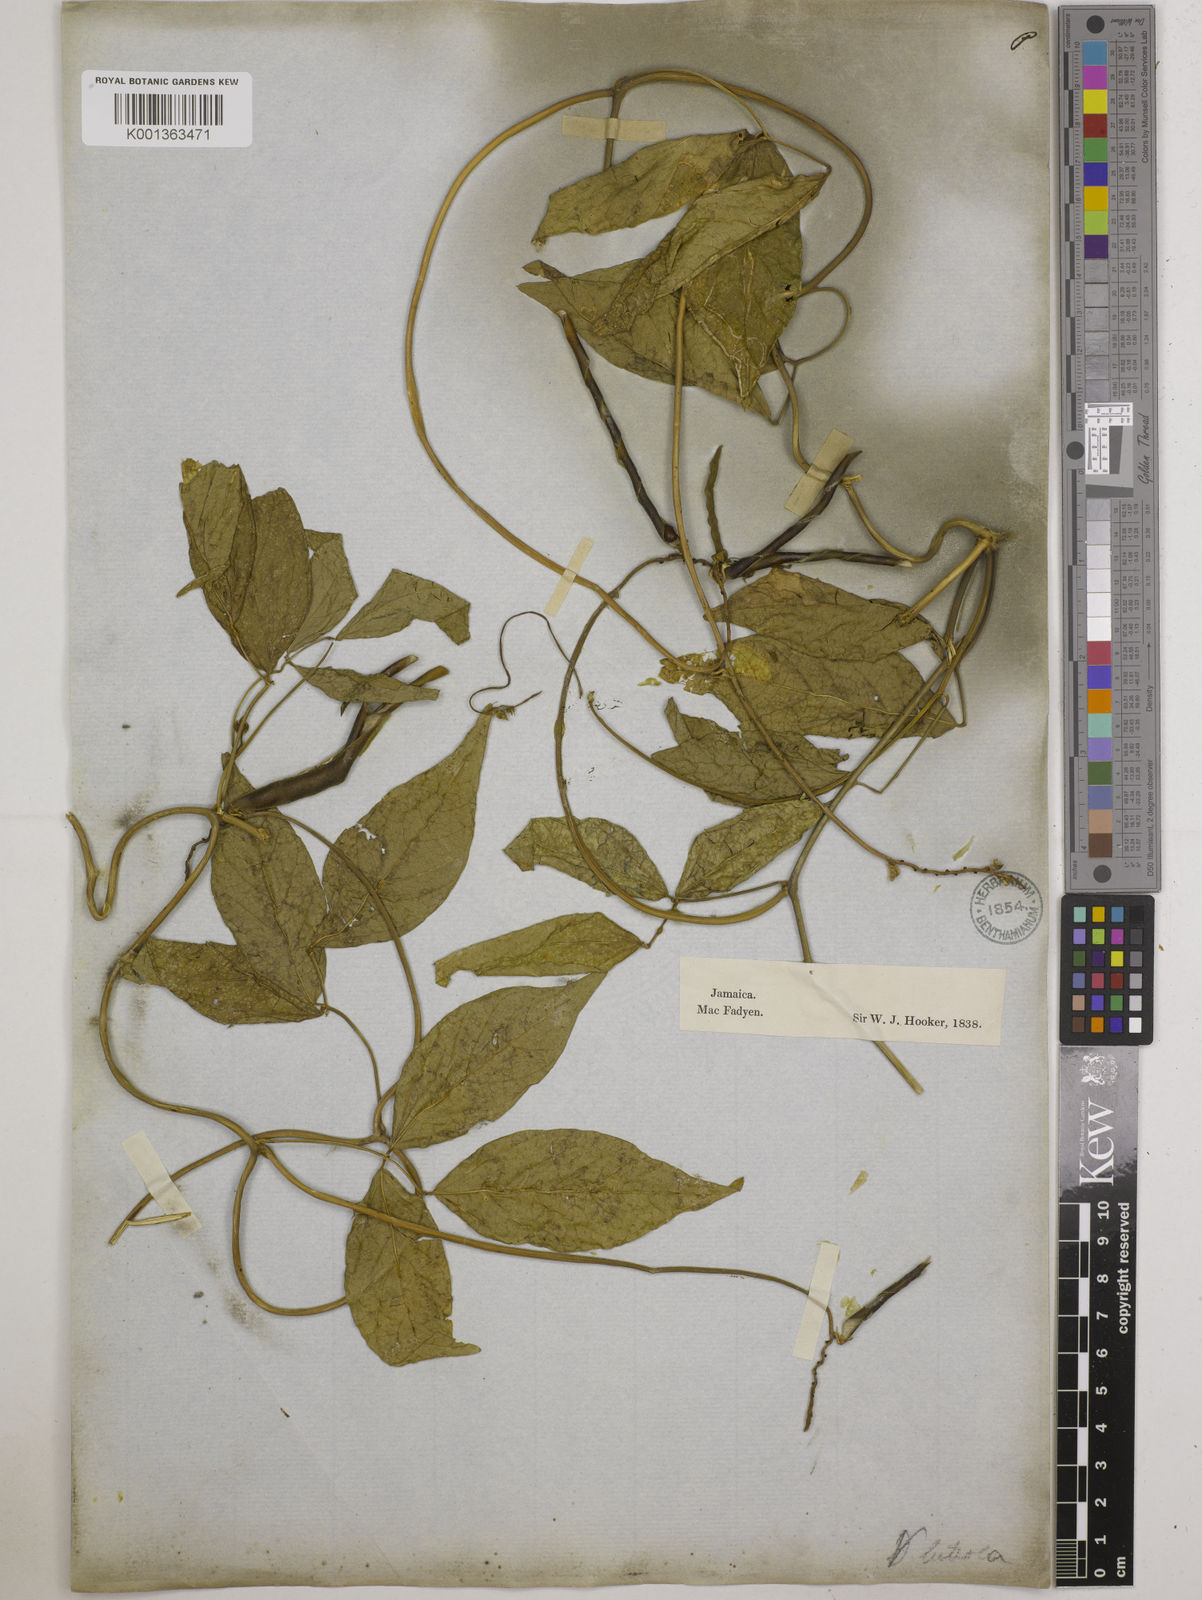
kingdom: Plantae
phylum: Tracheophyta
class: Magnoliopsida
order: Fabales
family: Fabaceae
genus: Vigna
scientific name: Vigna luteola
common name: Hairypod cowpea
